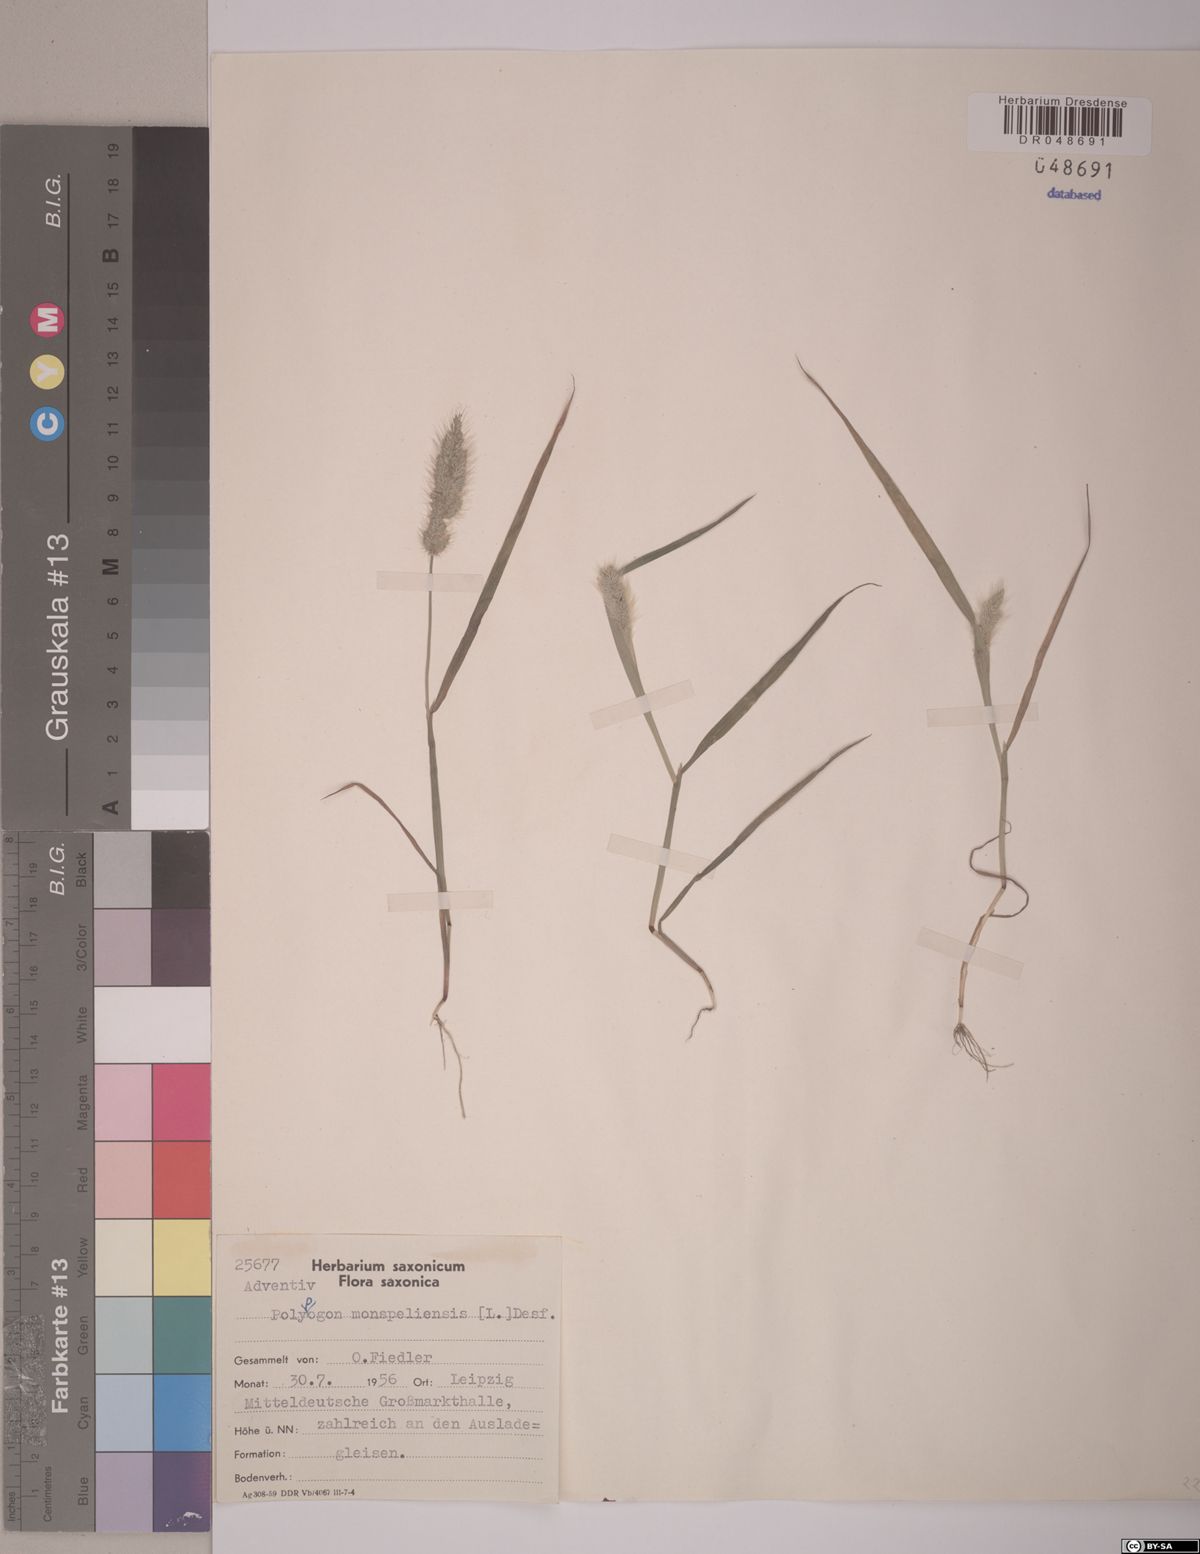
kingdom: Plantae
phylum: Tracheophyta
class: Liliopsida
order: Poales
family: Poaceae
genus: Polypogon
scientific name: Polypogon monspeliensis
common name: Annual rabbitsfoot grass
